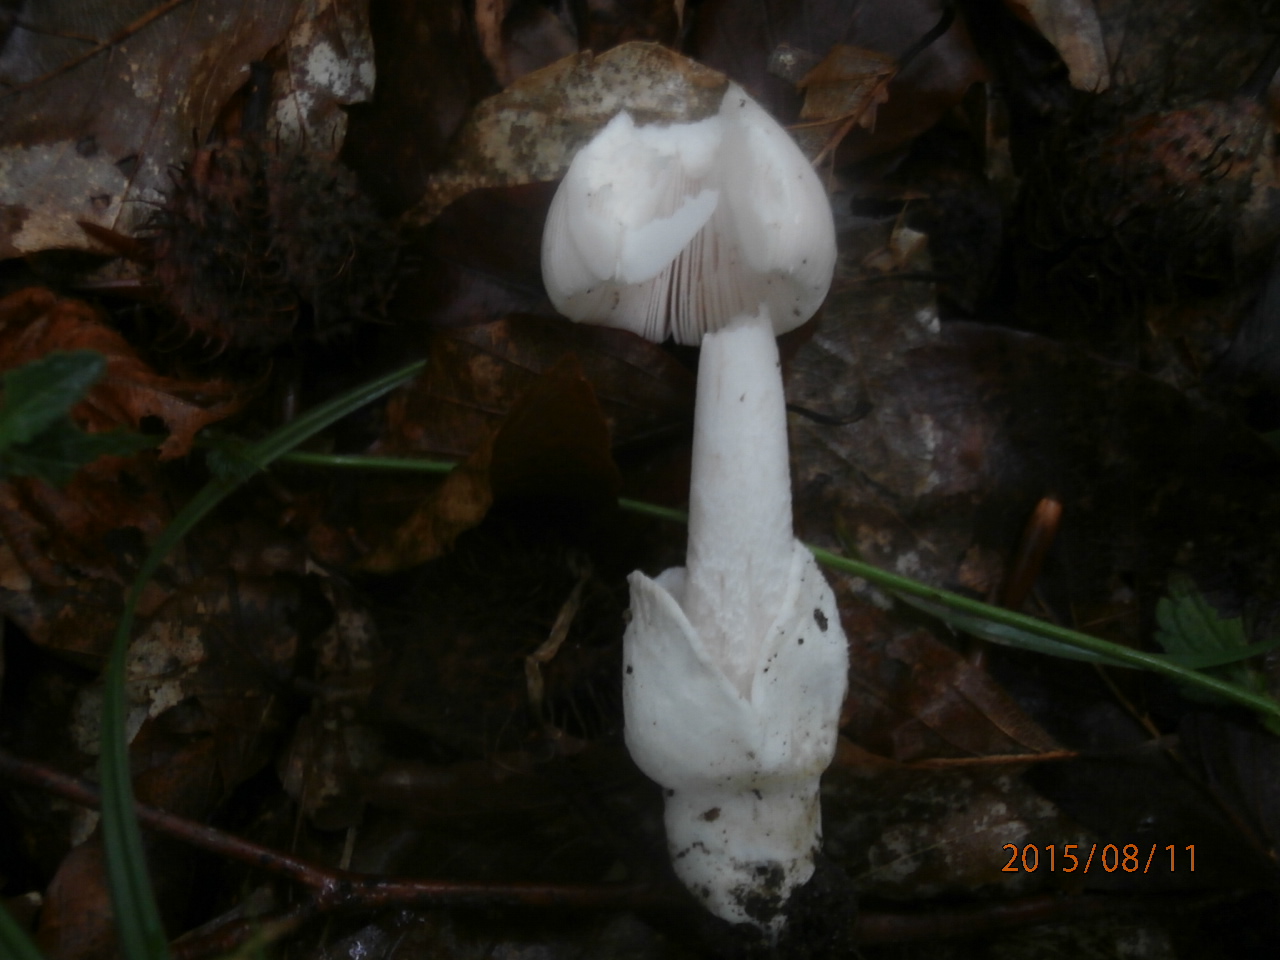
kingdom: Fungi
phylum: Basidiomycota
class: Agaricomycetes
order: Agaricales
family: Amanitaceae
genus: Amanita
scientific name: Amanita vaginata
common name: grå kam-fluesvamp
